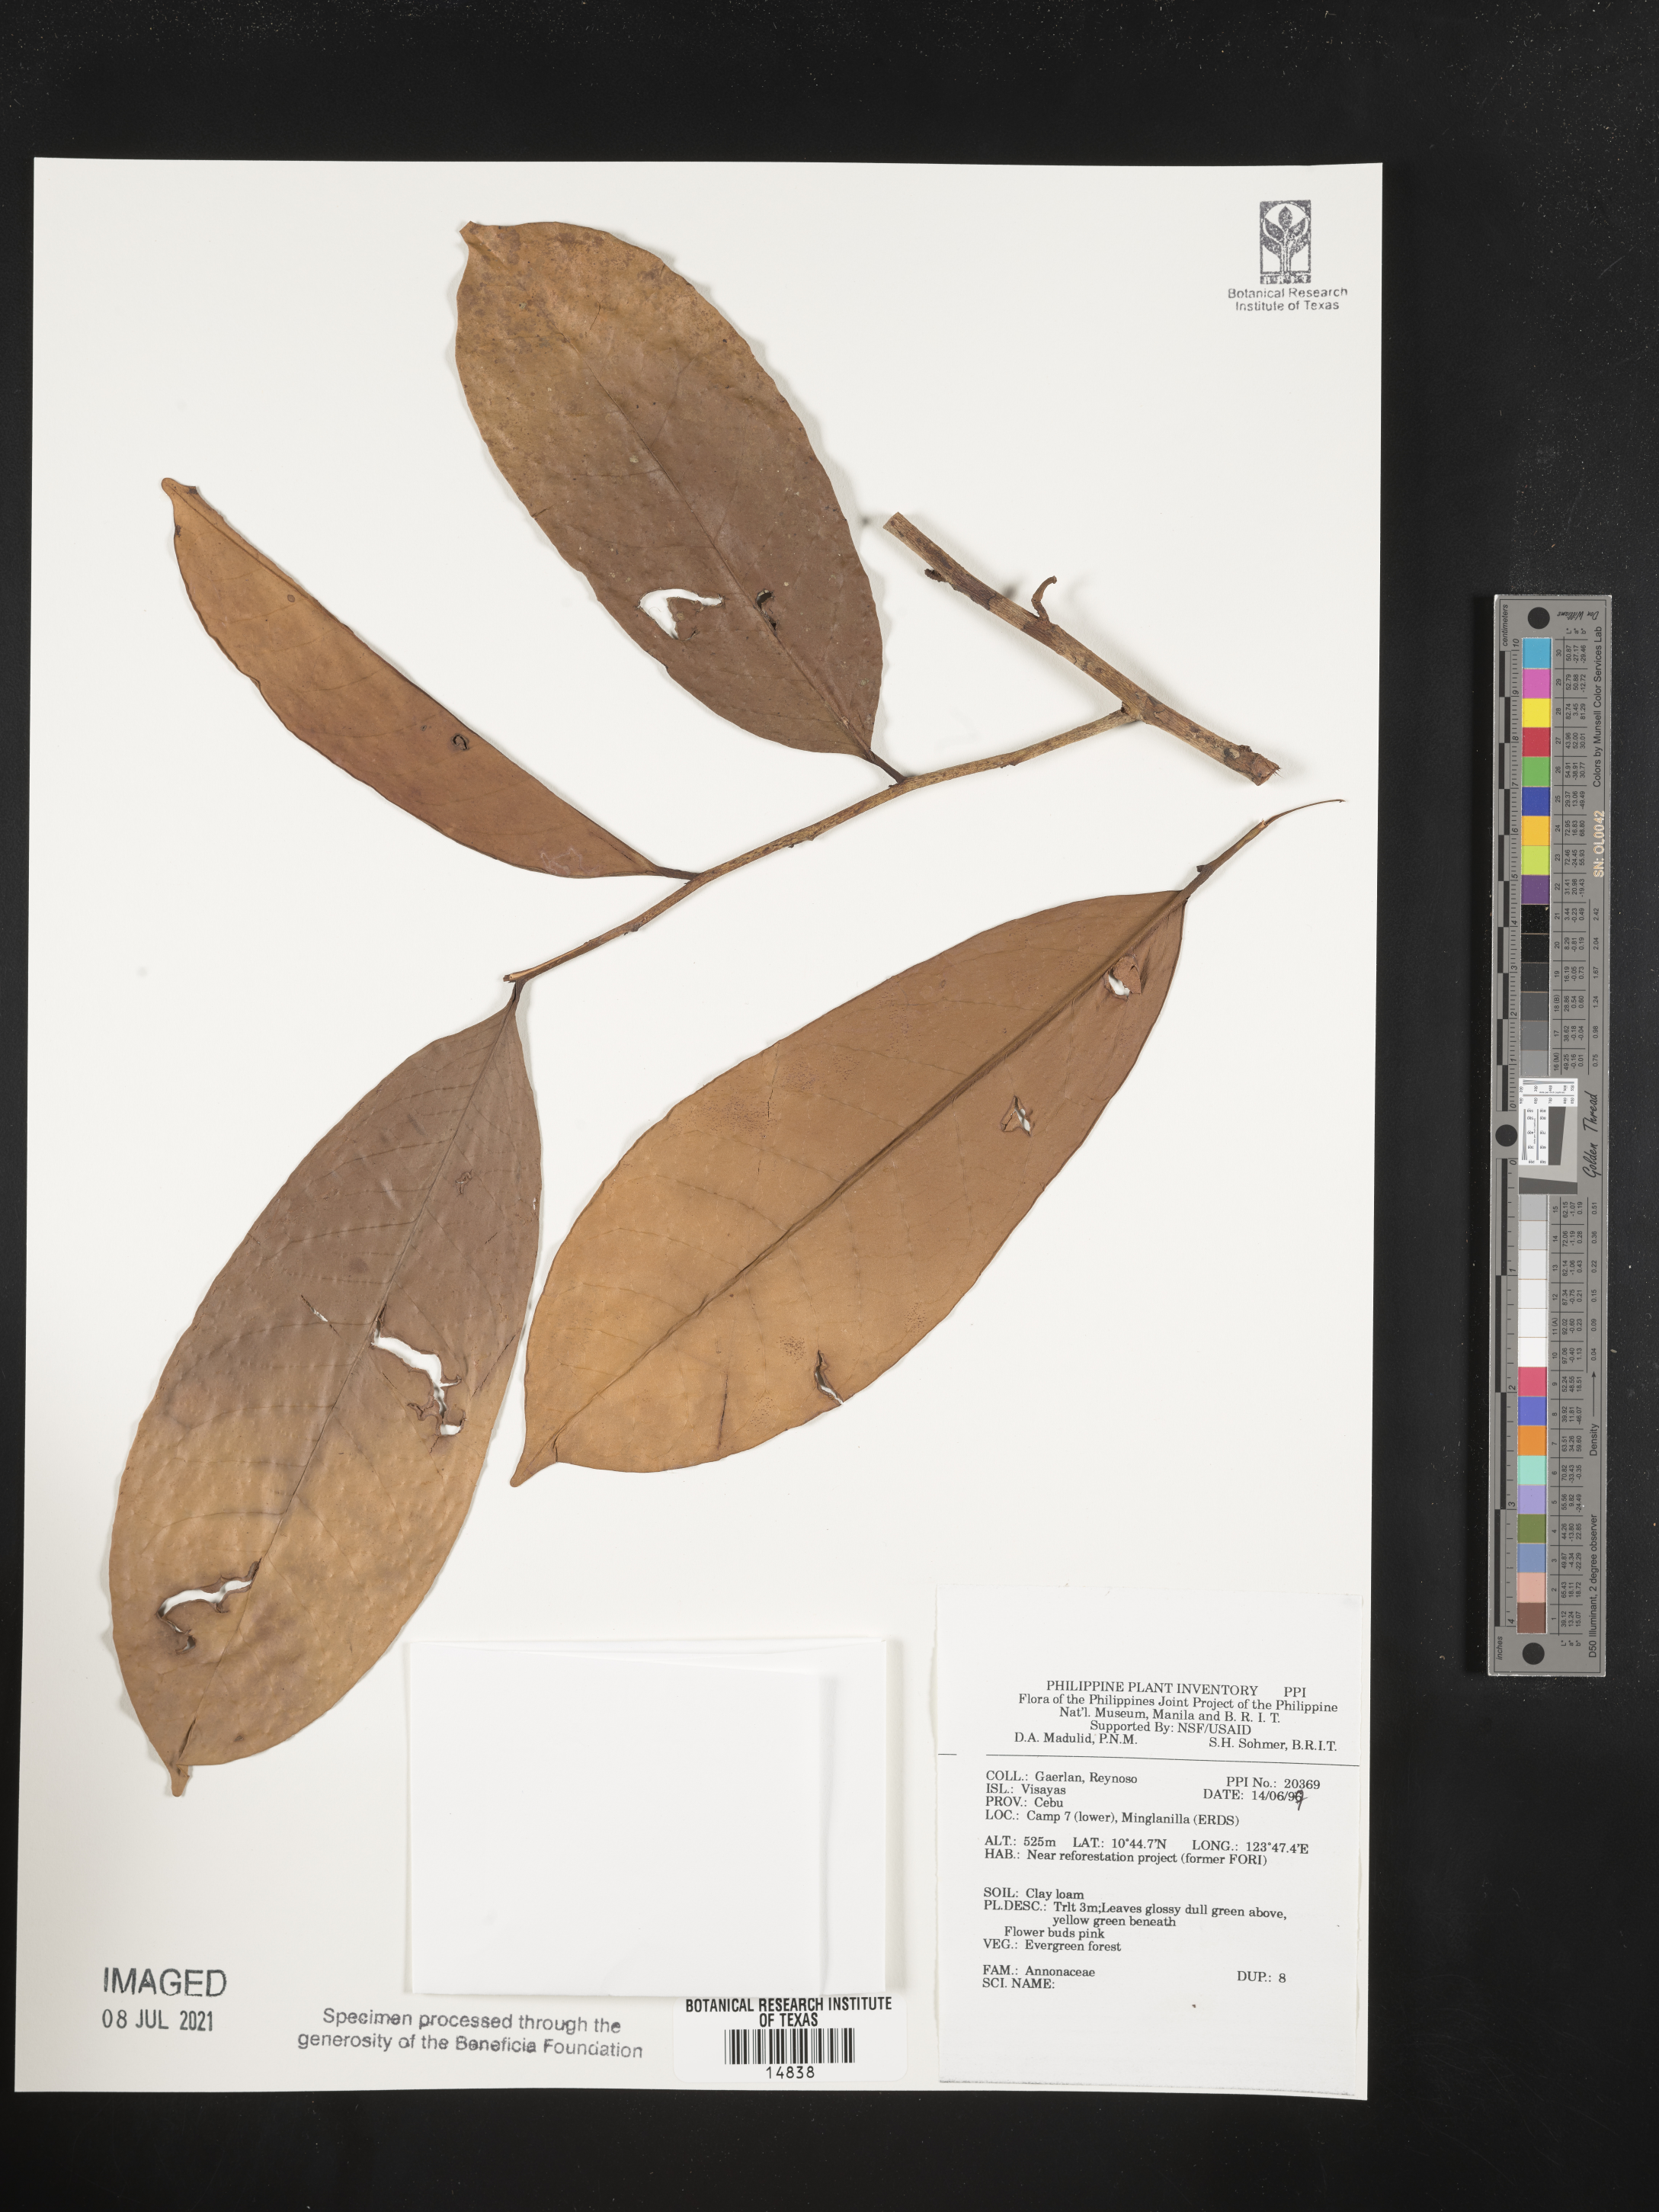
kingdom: Plantae
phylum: Tracheophyta
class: Magnoliopsida
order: Magnoliales
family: Annonaceae
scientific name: Annonaceae
